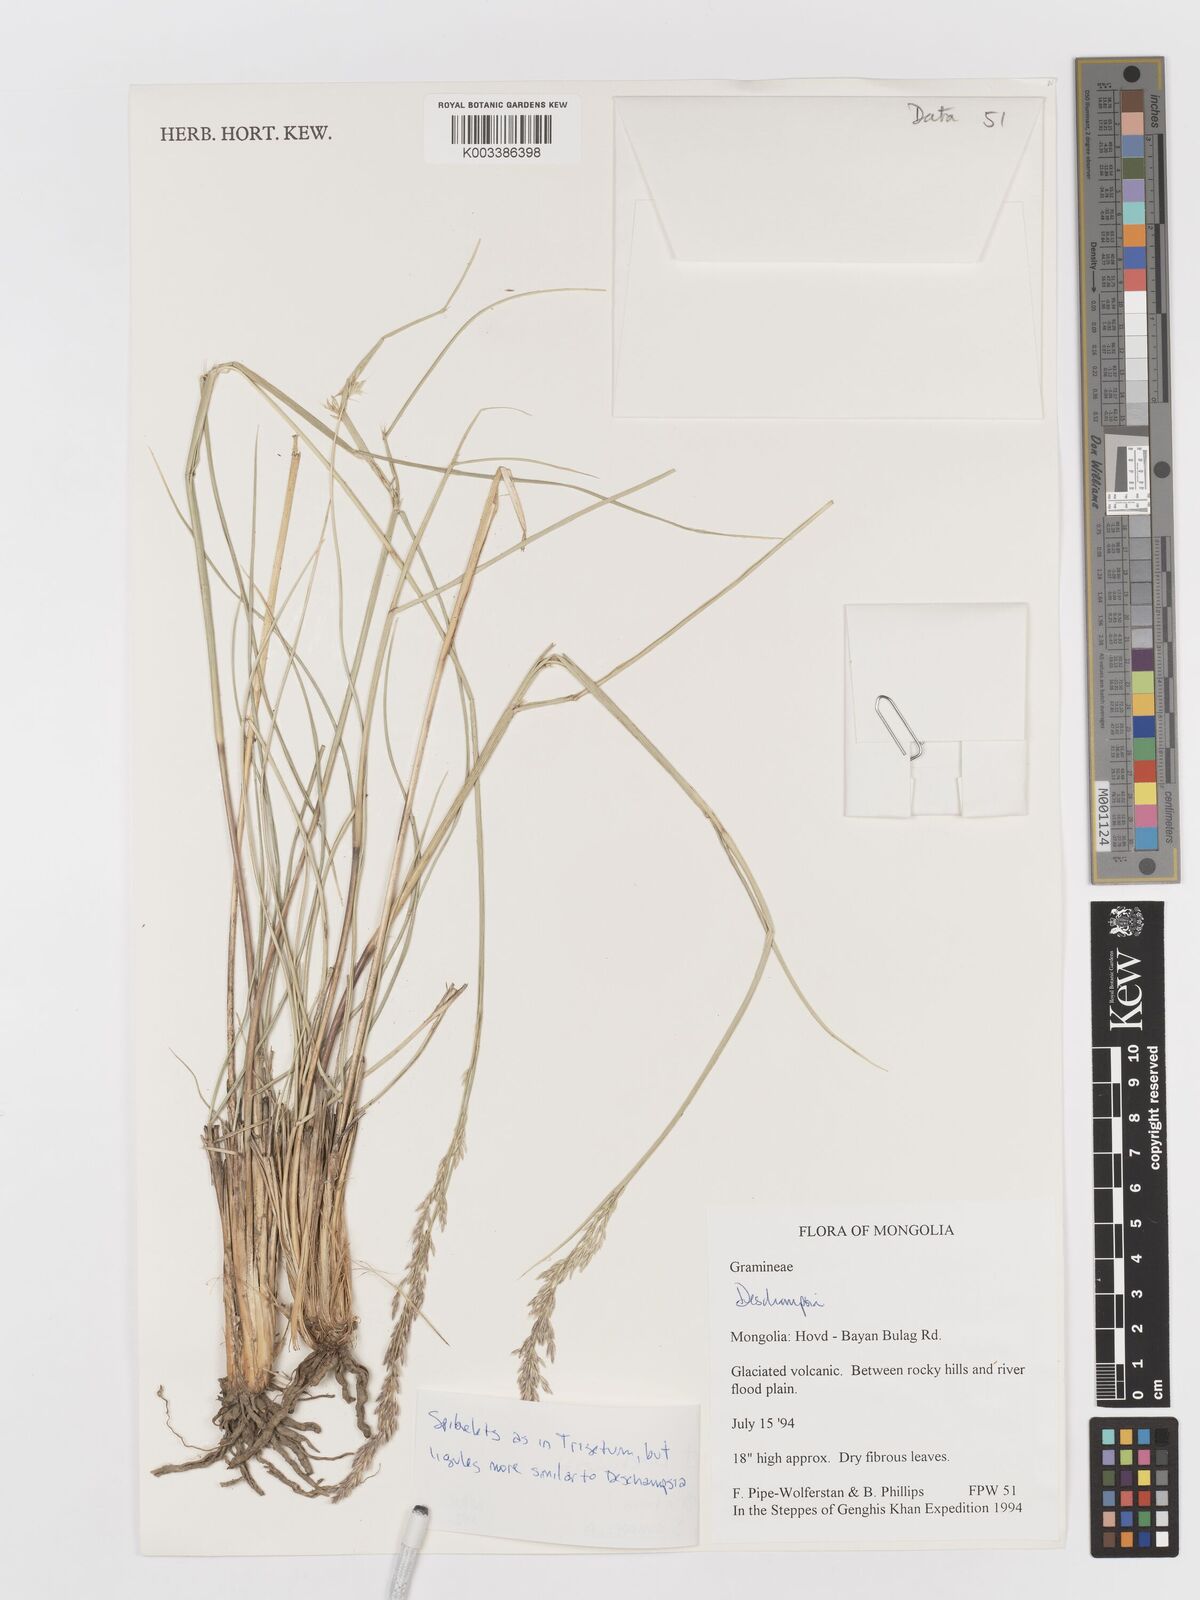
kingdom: Plantae
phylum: Tracheophyta
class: Liliopsida
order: Poales
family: Poaceae
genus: Deschampsia
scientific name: Deschampsia
